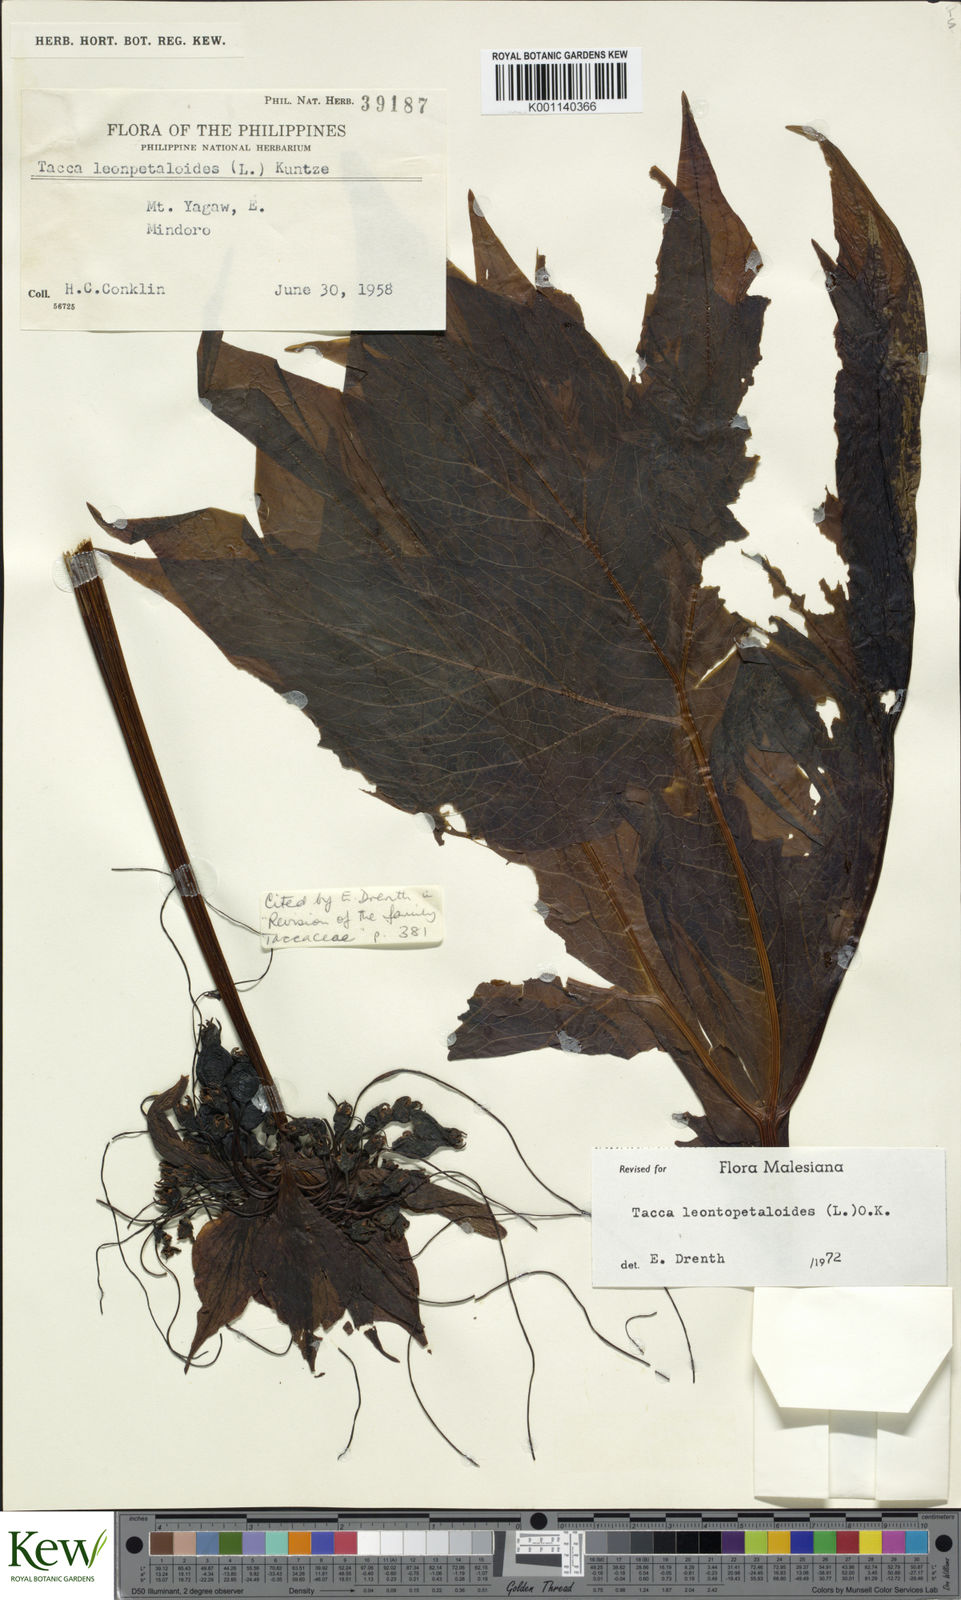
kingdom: Plantae
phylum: Tracheophyta
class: Liliopsida
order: Dioscoreales
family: Dioscoreaceae
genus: Tacca
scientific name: Tacca leontopetaloides
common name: Arrowroot
